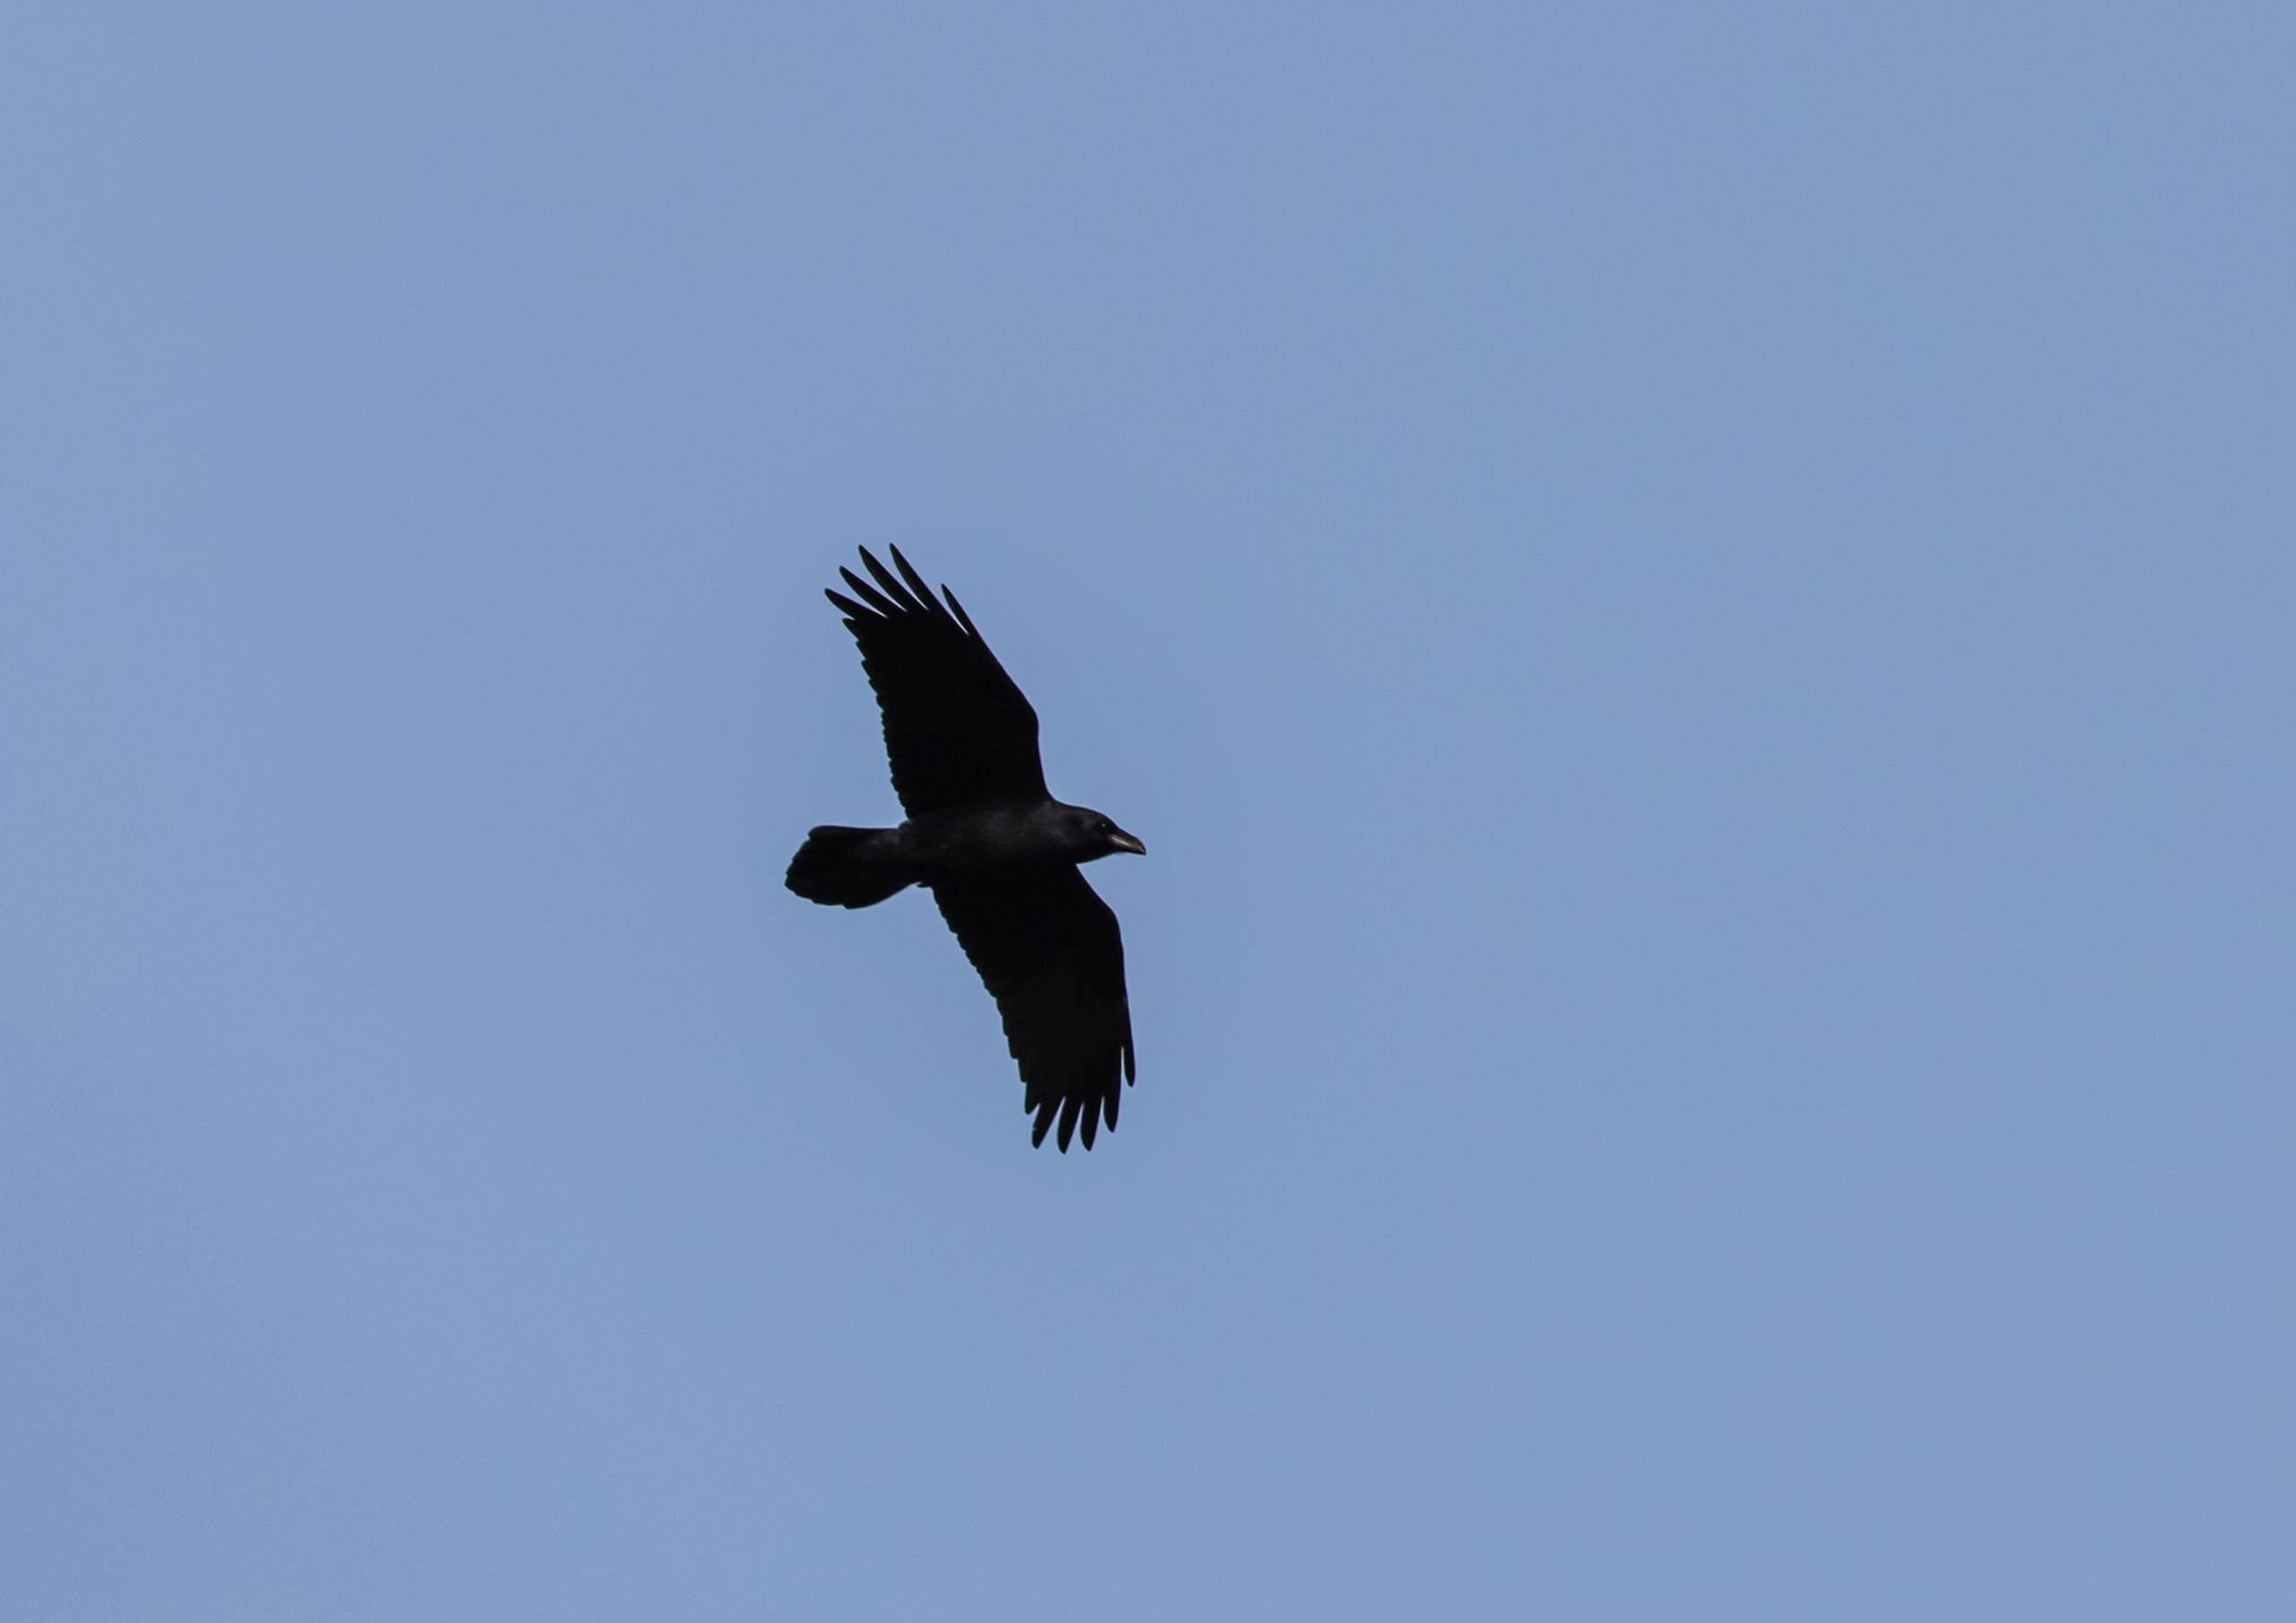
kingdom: Animalia
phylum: Chordata
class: Aves
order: Passeriformes
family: Corvidae
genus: Corvus
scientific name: Corvus corax
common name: Ravn
